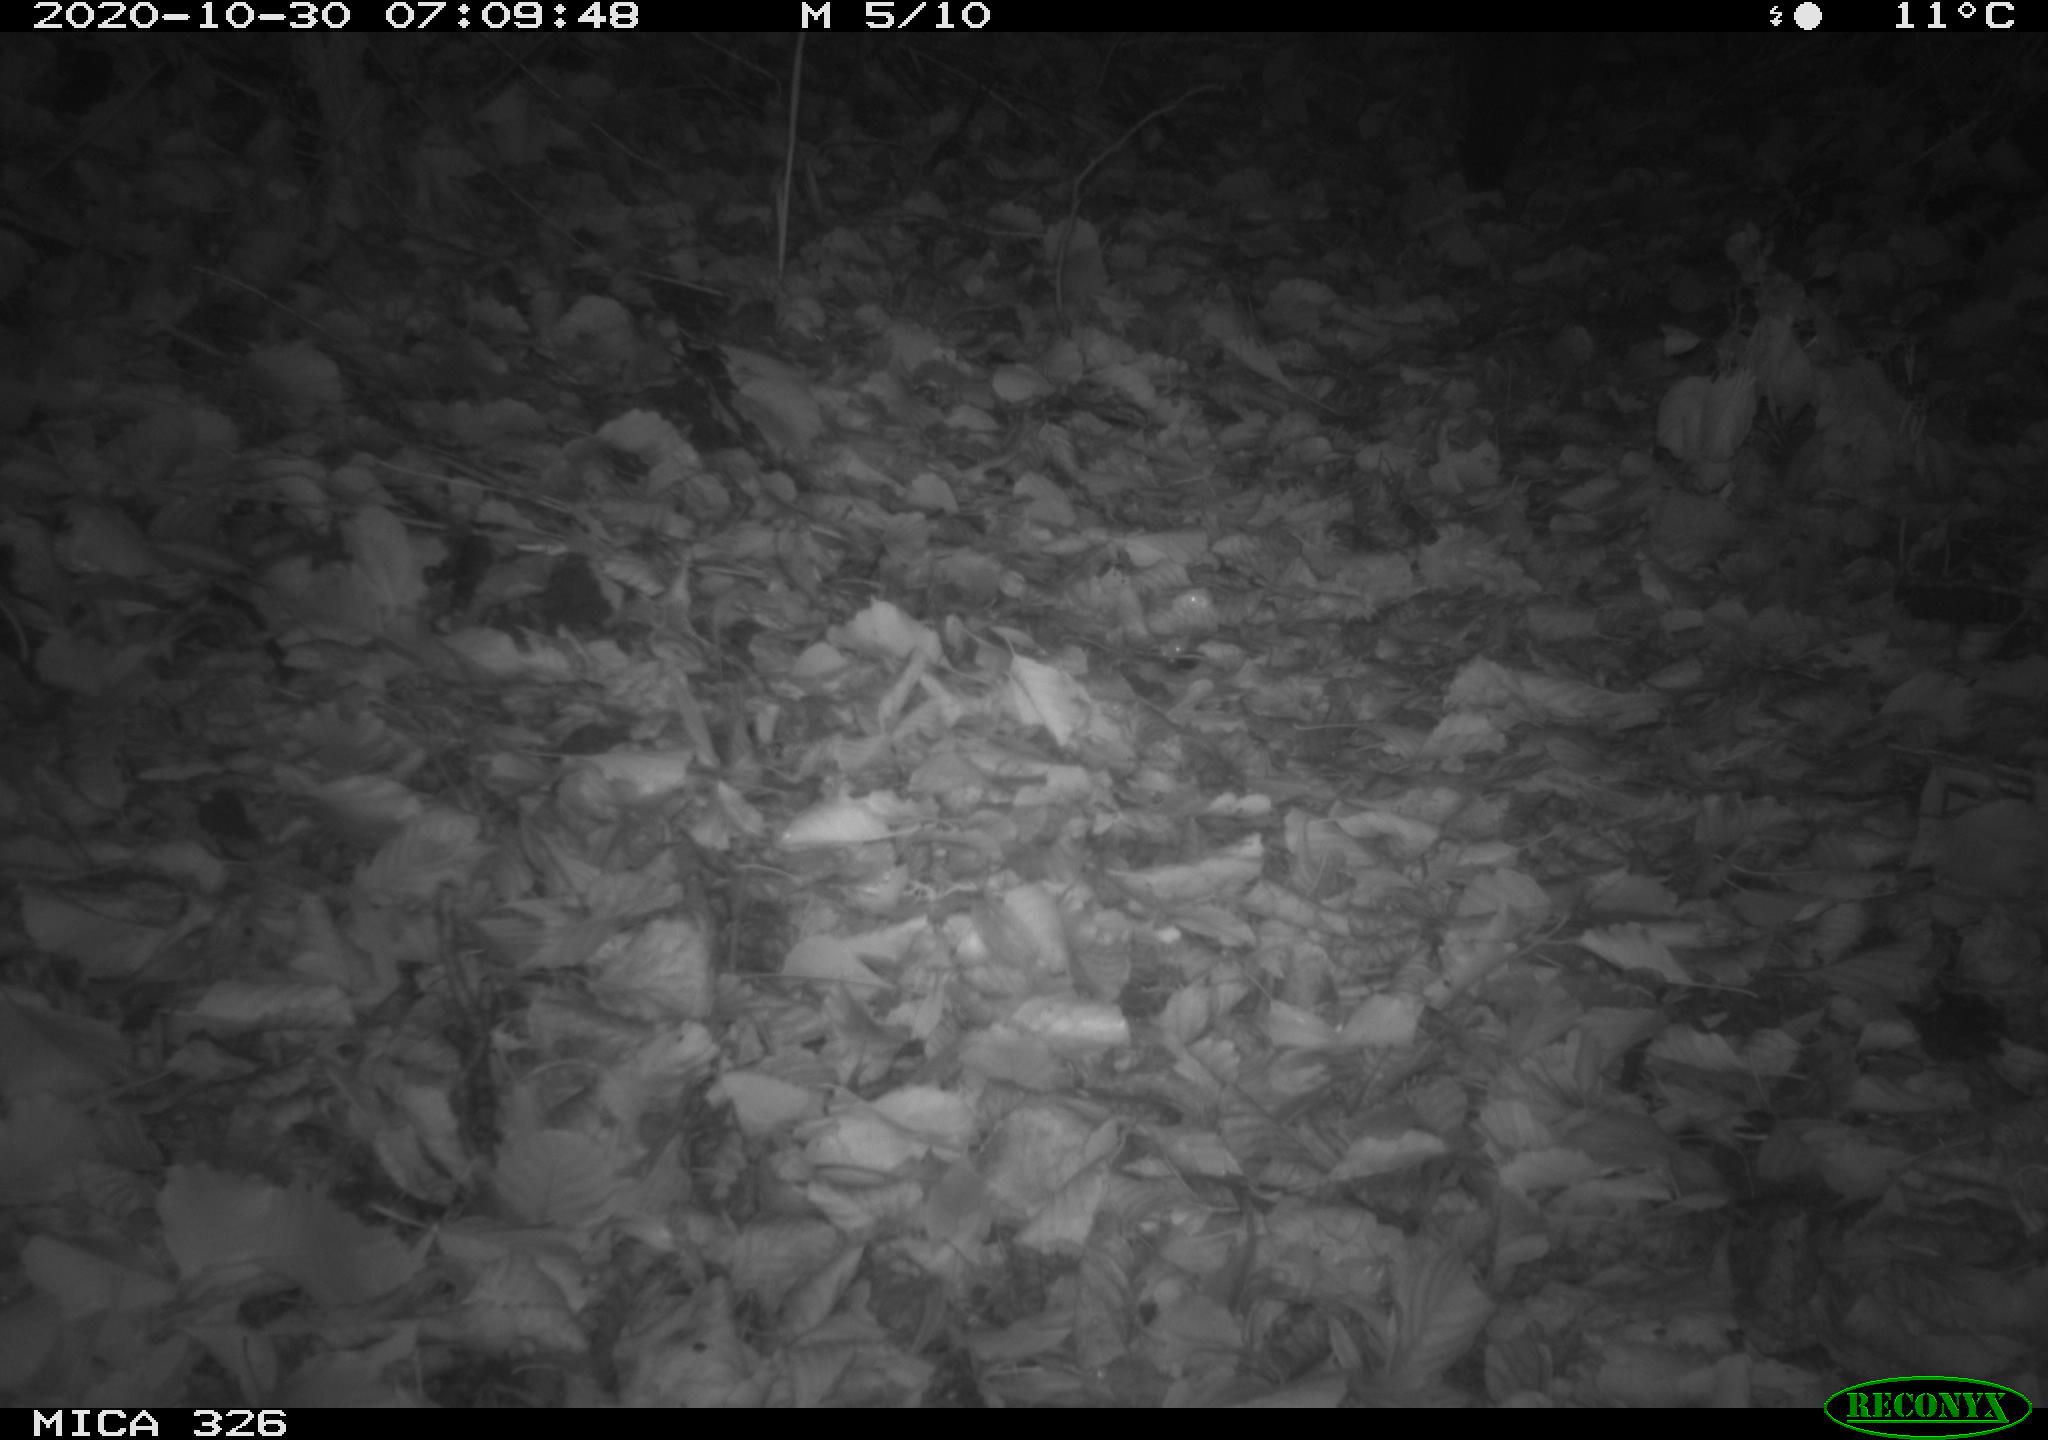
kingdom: Animalia
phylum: Chordata
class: Mammalia
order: Carnivora
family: Mustelidae
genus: Lutra
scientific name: Lutra lutra
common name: European otter
